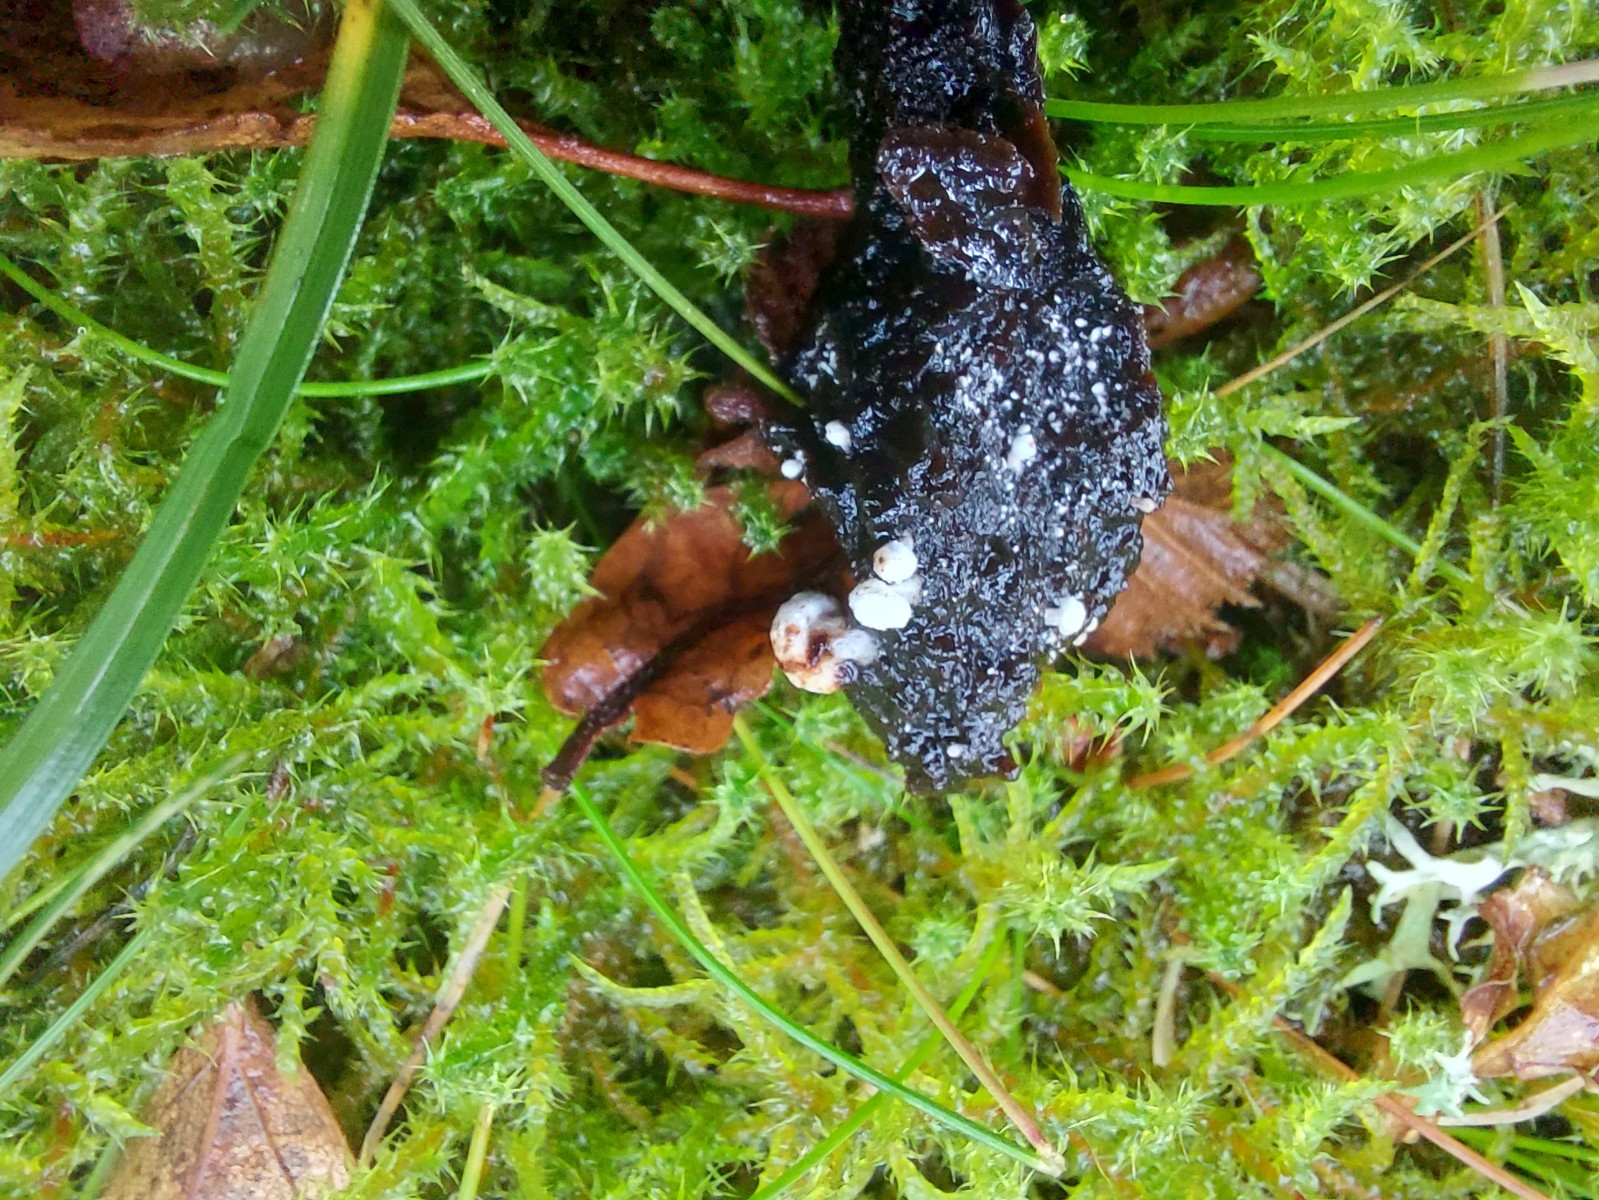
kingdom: Fungi
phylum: Basidiomycota
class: Agaricomycetes
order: Agaricales
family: Lyophyllaceae
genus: Asterophora
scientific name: Asterophora lycoperdoides
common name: brunpudret snyltehat
